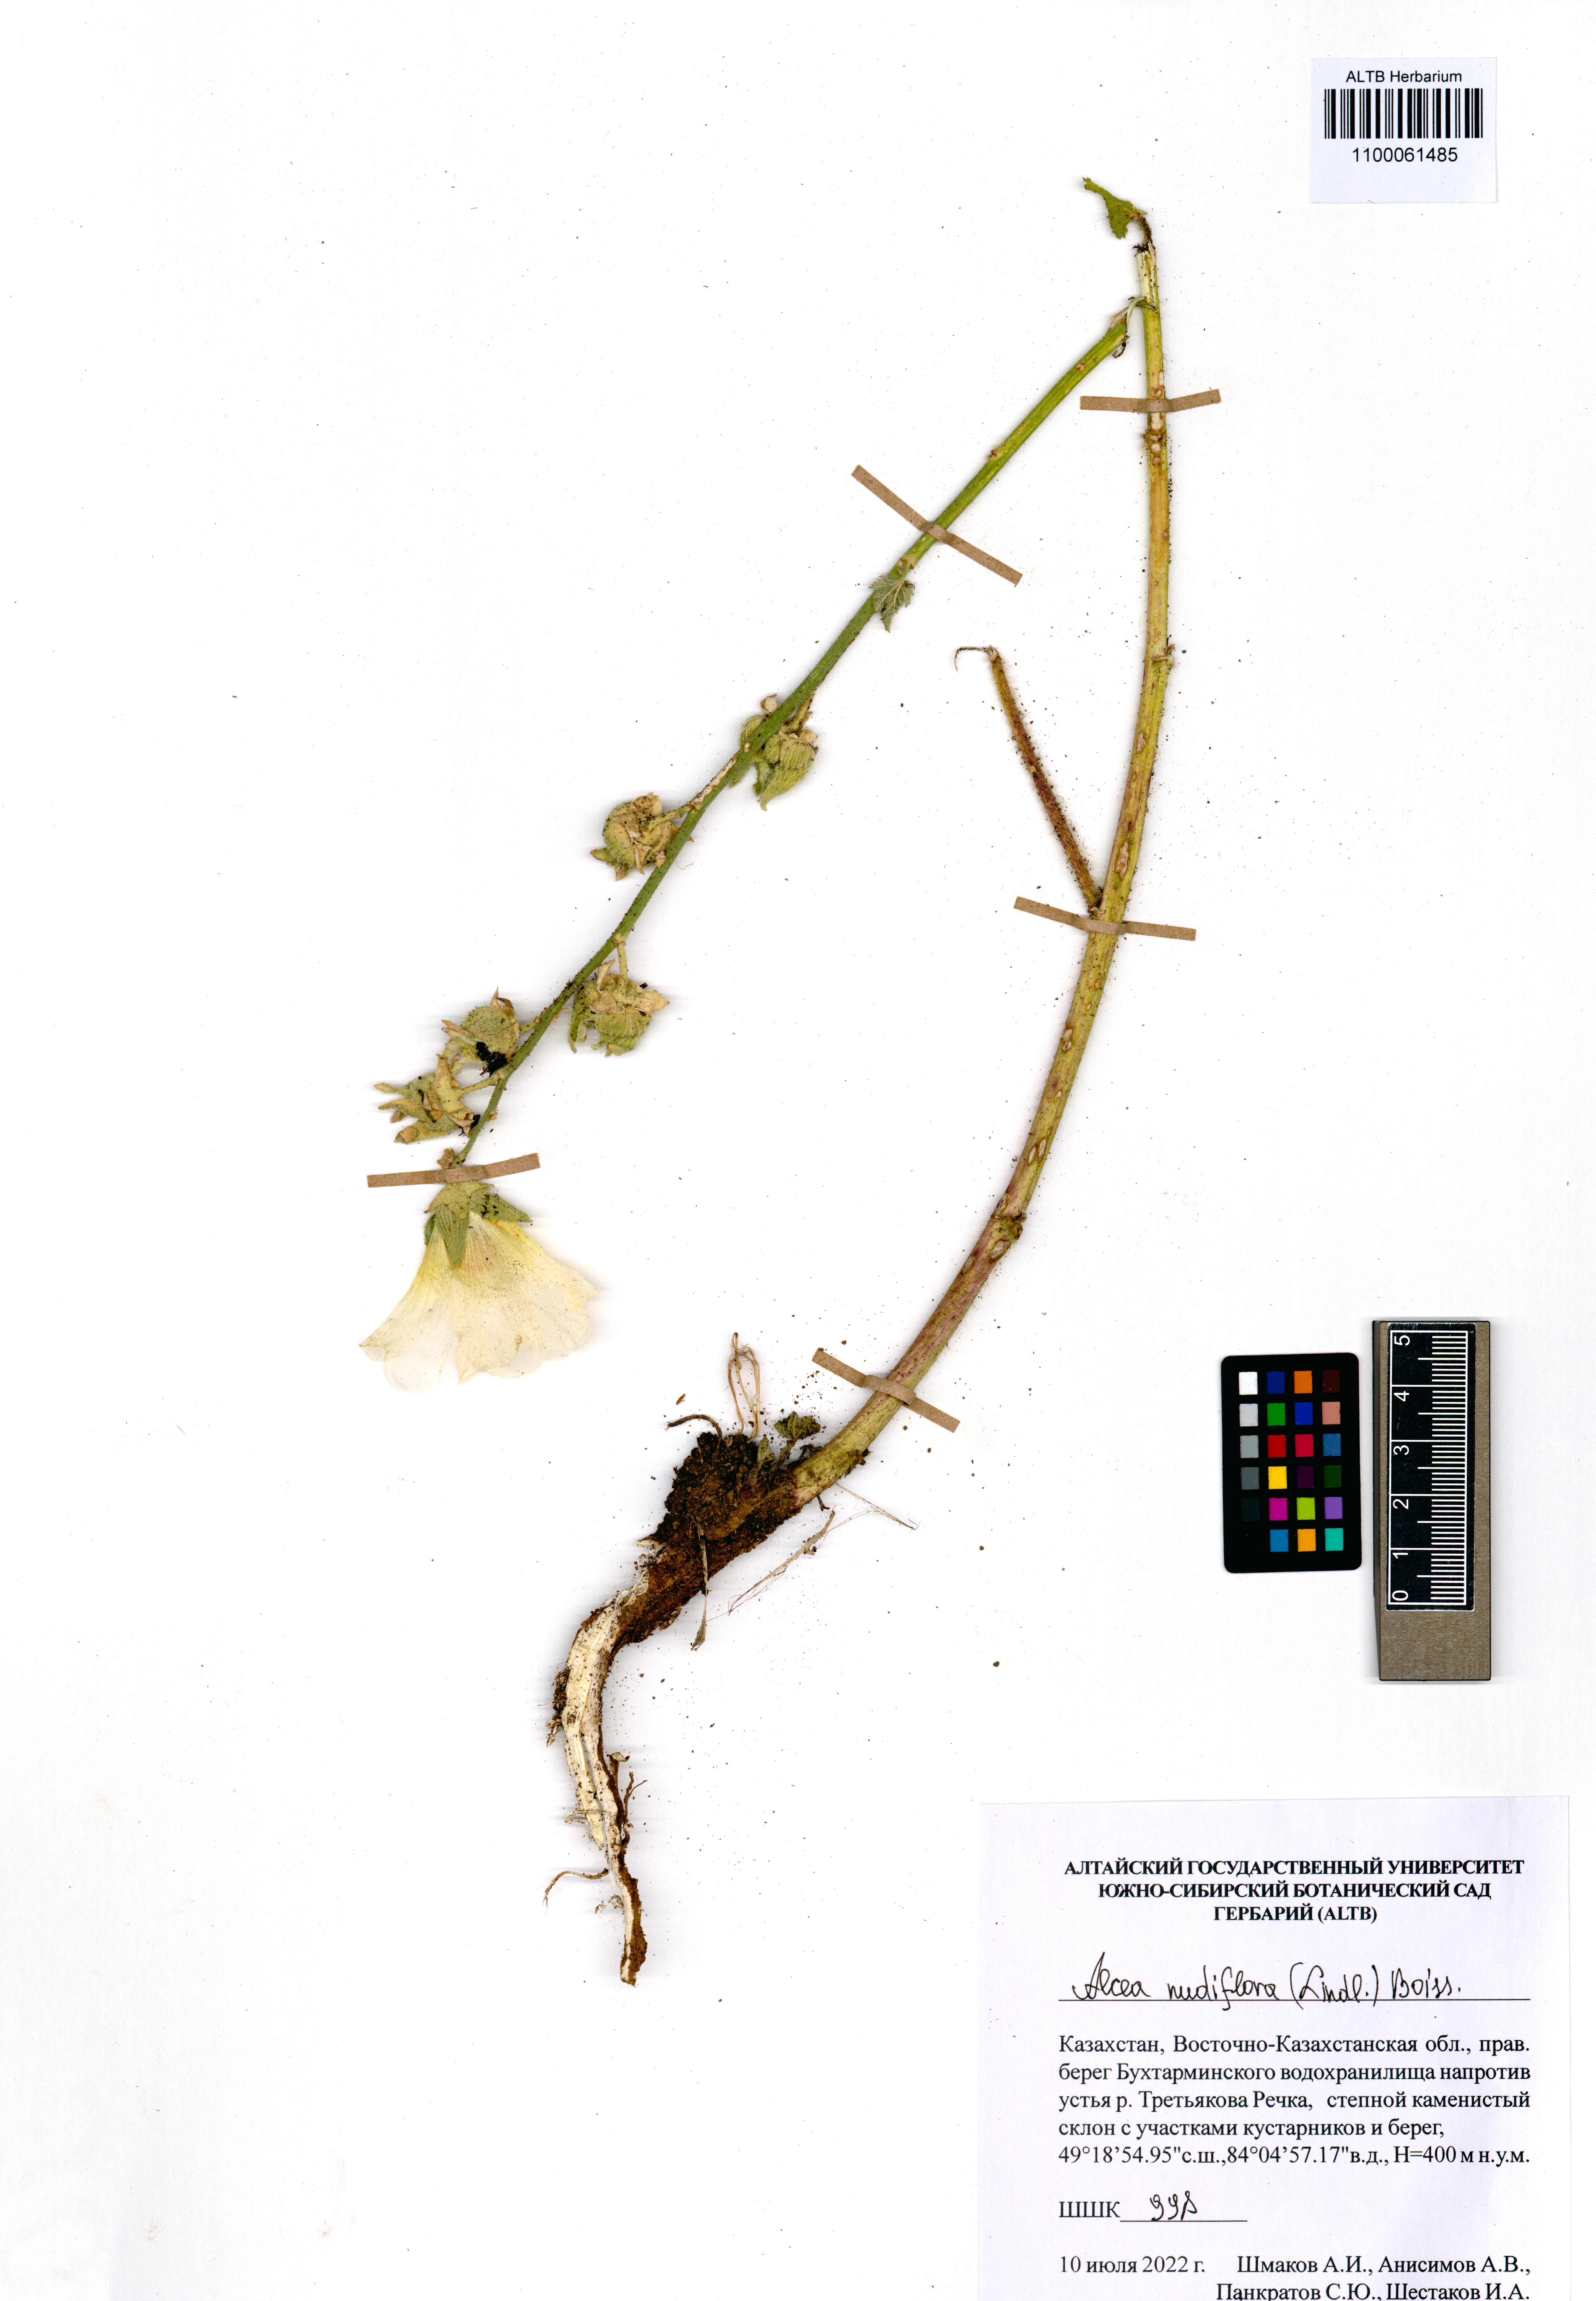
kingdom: Plantae
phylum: Tracheophyta
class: Magnoliopsida
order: Malvales
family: Malvaceae
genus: Alcea
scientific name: Alcea nudiflora
